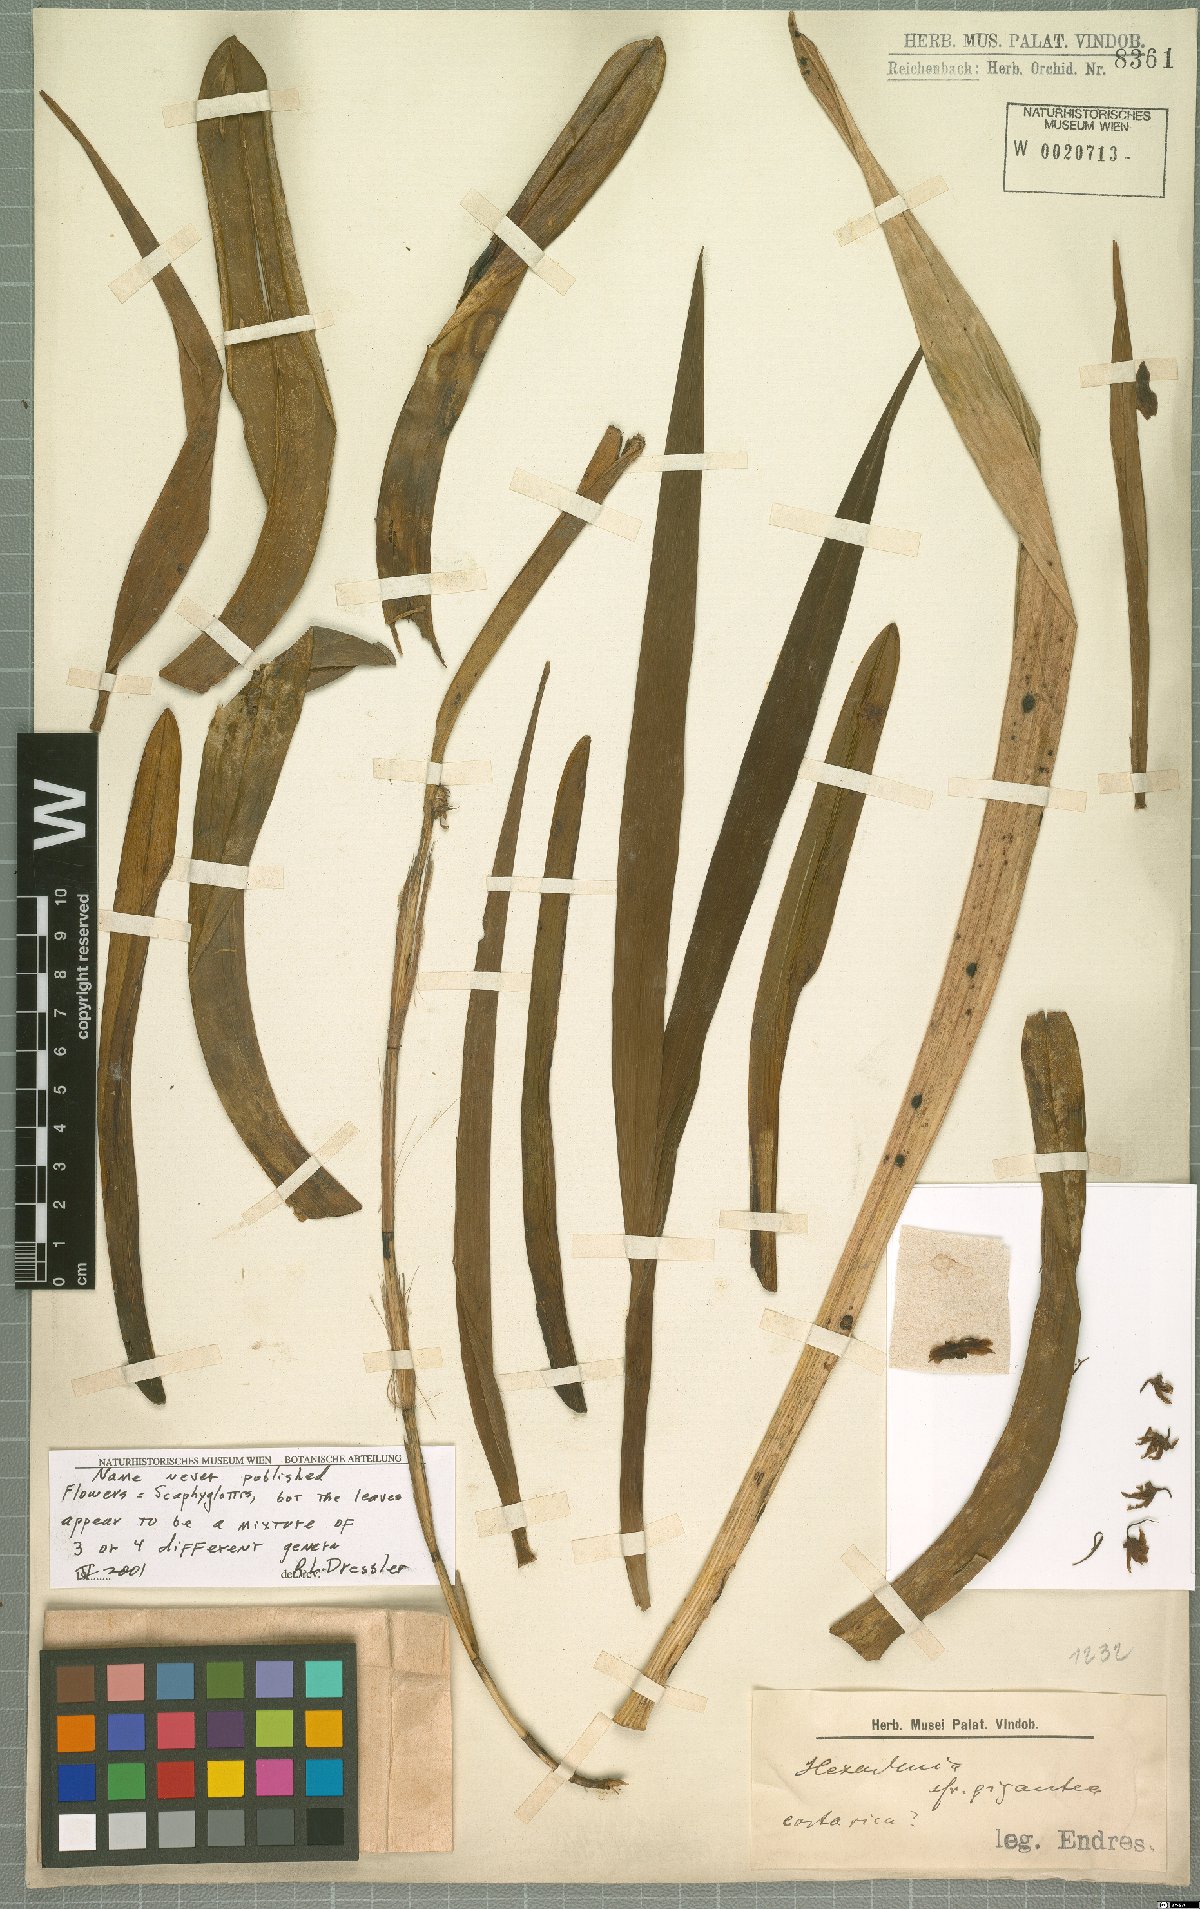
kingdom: Plantae
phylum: Tracheophyta
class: Liliopsida
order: Asparagales
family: Orchidaceae
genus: Scaphyglottis
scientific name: Scaphyglottis
